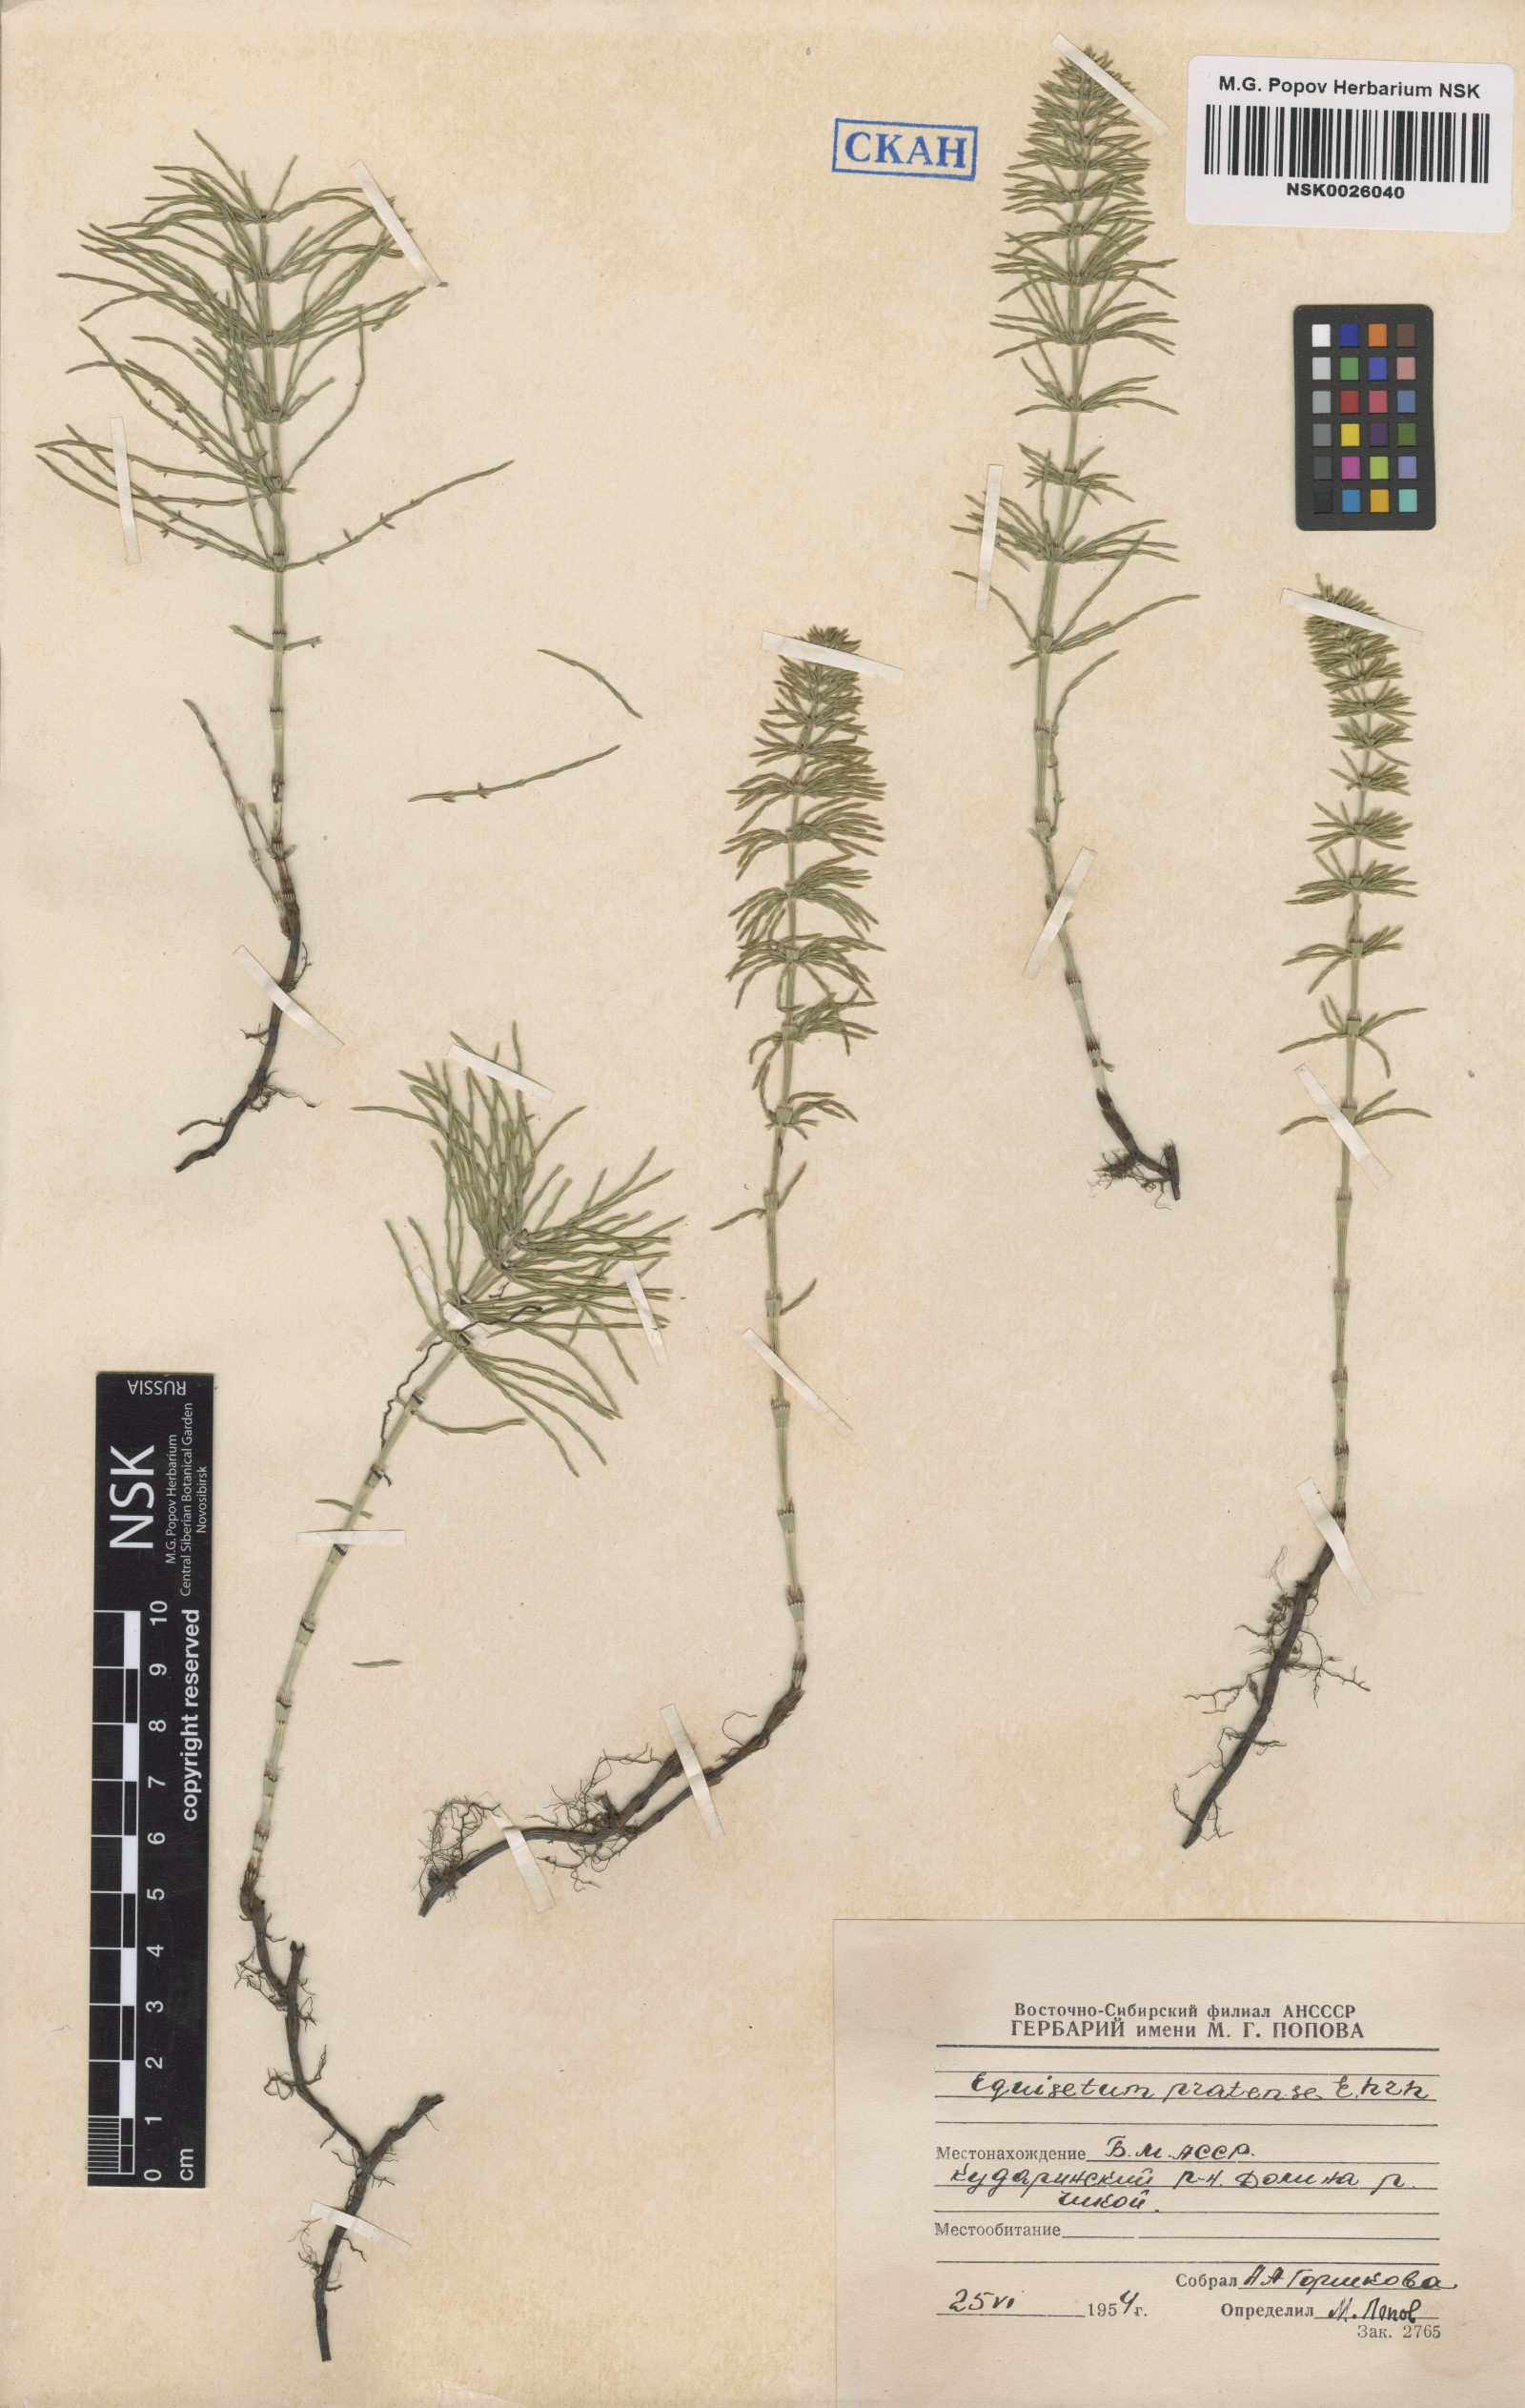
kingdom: Plantae
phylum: Tracheophyta
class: Polypodiopsida
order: Equisetales
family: Equisetaceae
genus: Equisetum
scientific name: Equisetum pratense
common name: Meadow horsetail
